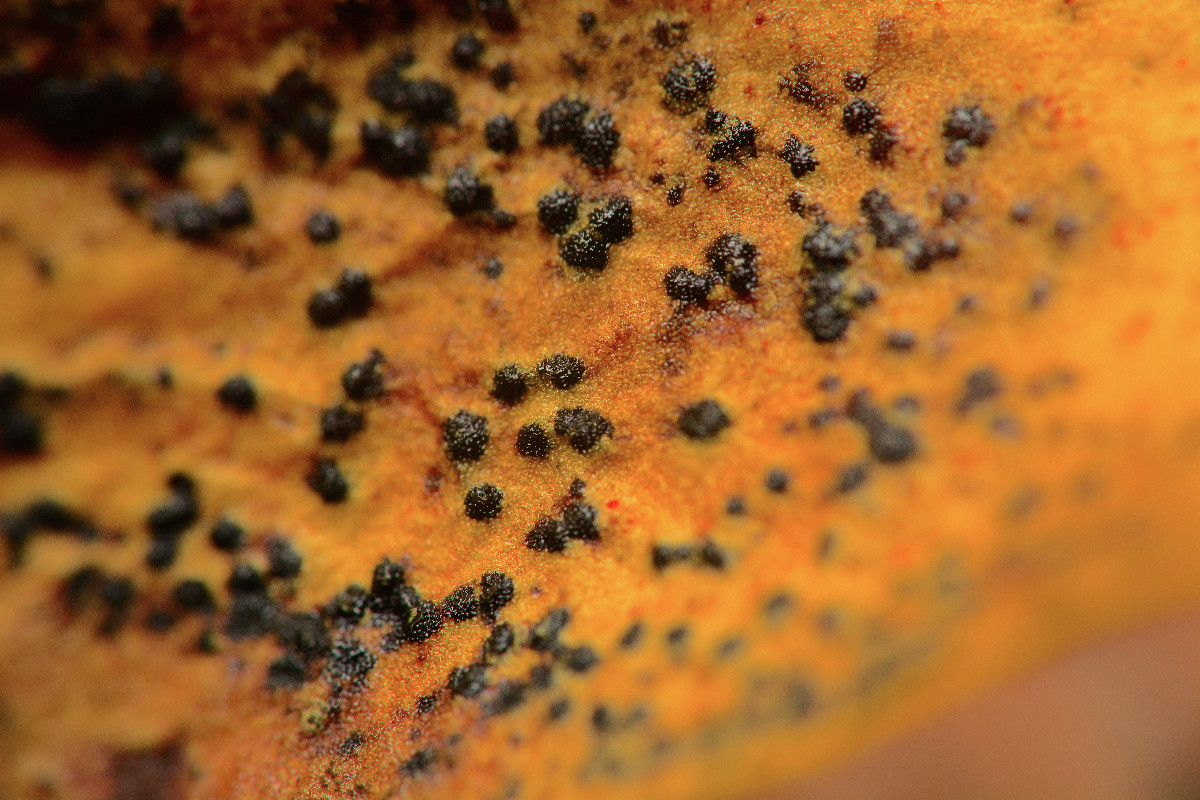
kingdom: Fungi
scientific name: Fungi
